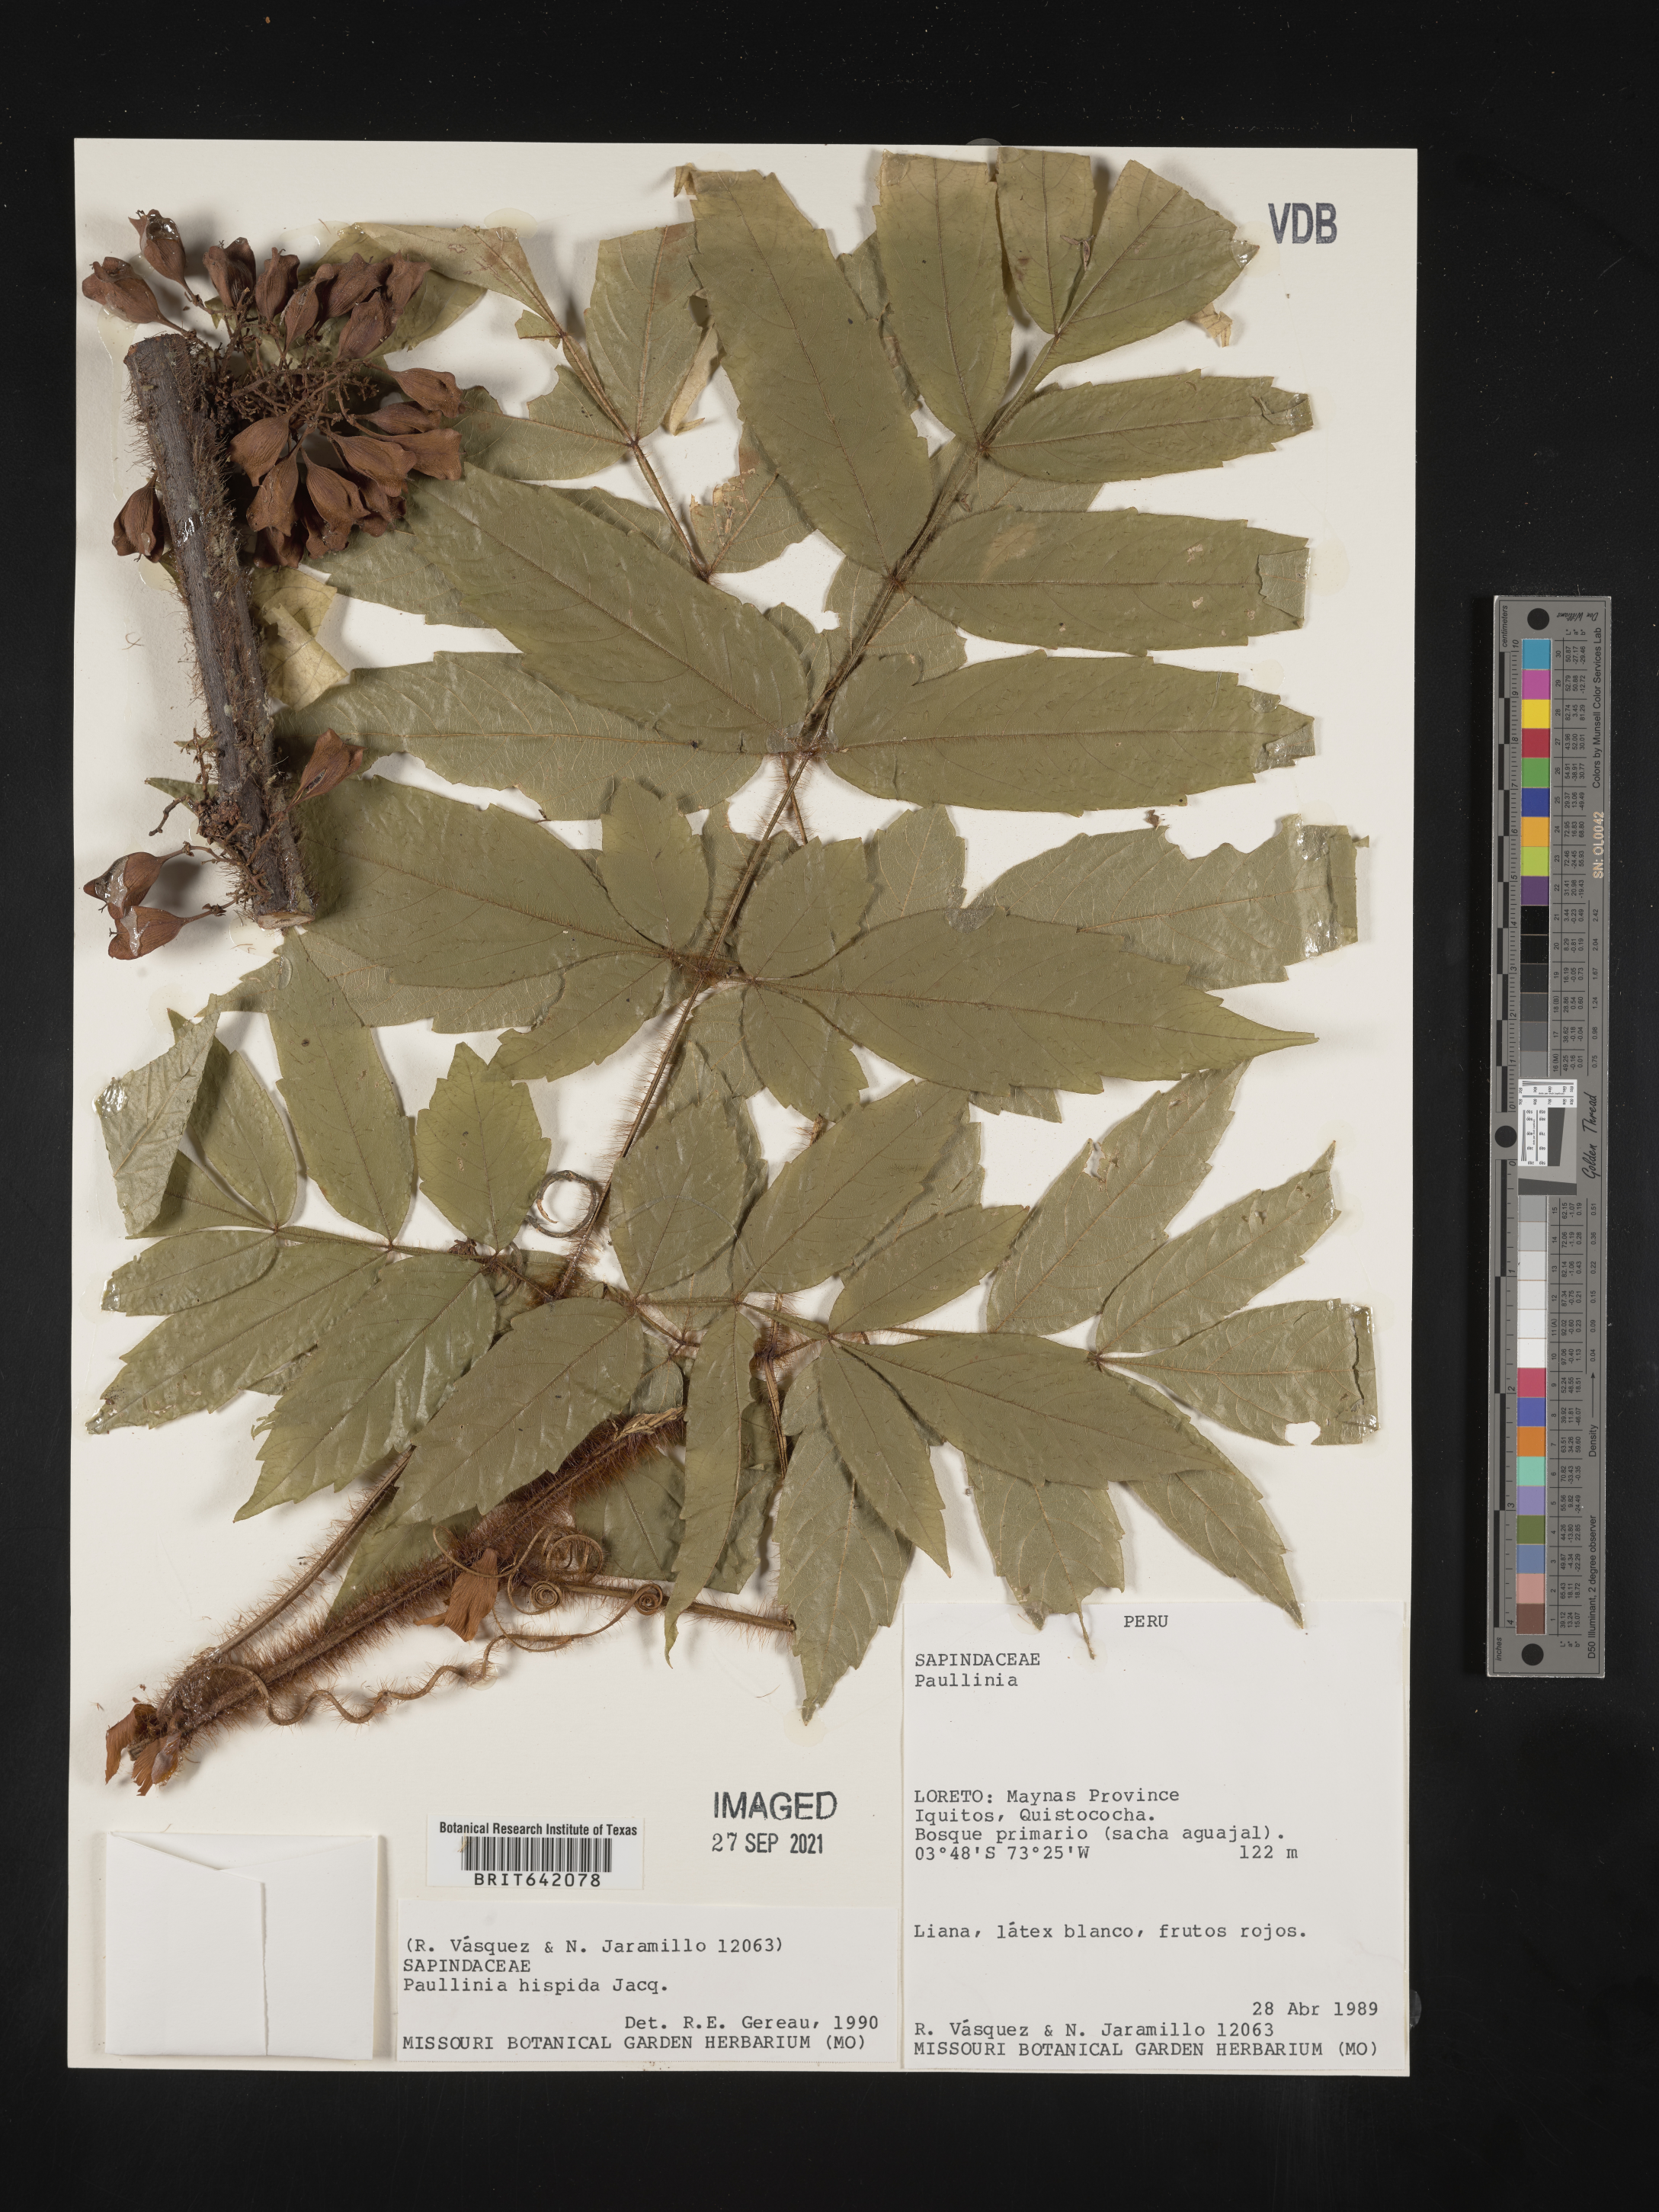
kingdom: Plantae
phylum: Tracheophyta
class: Magnoliopsida
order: Sapindales
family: Sapindaceae
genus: Paullinia
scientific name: Paullinia
